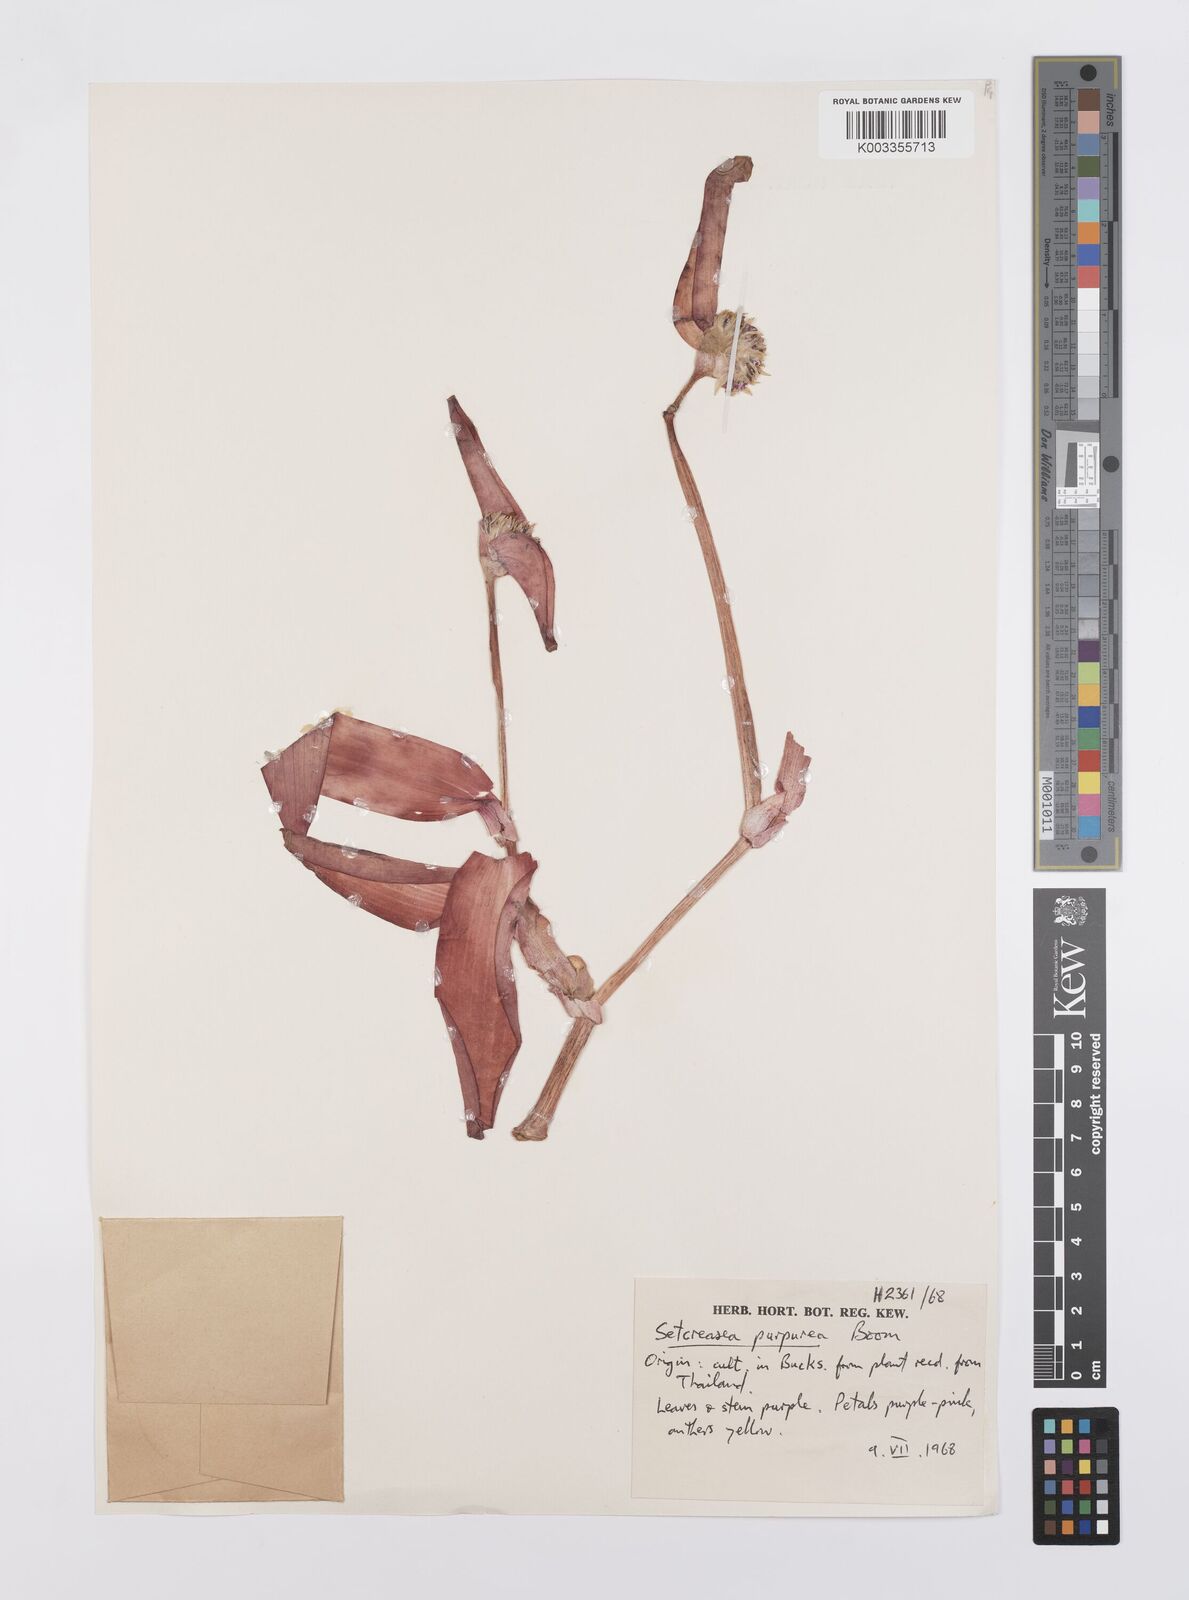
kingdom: Plantae
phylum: Tracheophyta
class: Liliopsida
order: Commelinales
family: Commelinaceae
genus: Callisia
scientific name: Callisia purpurascens
